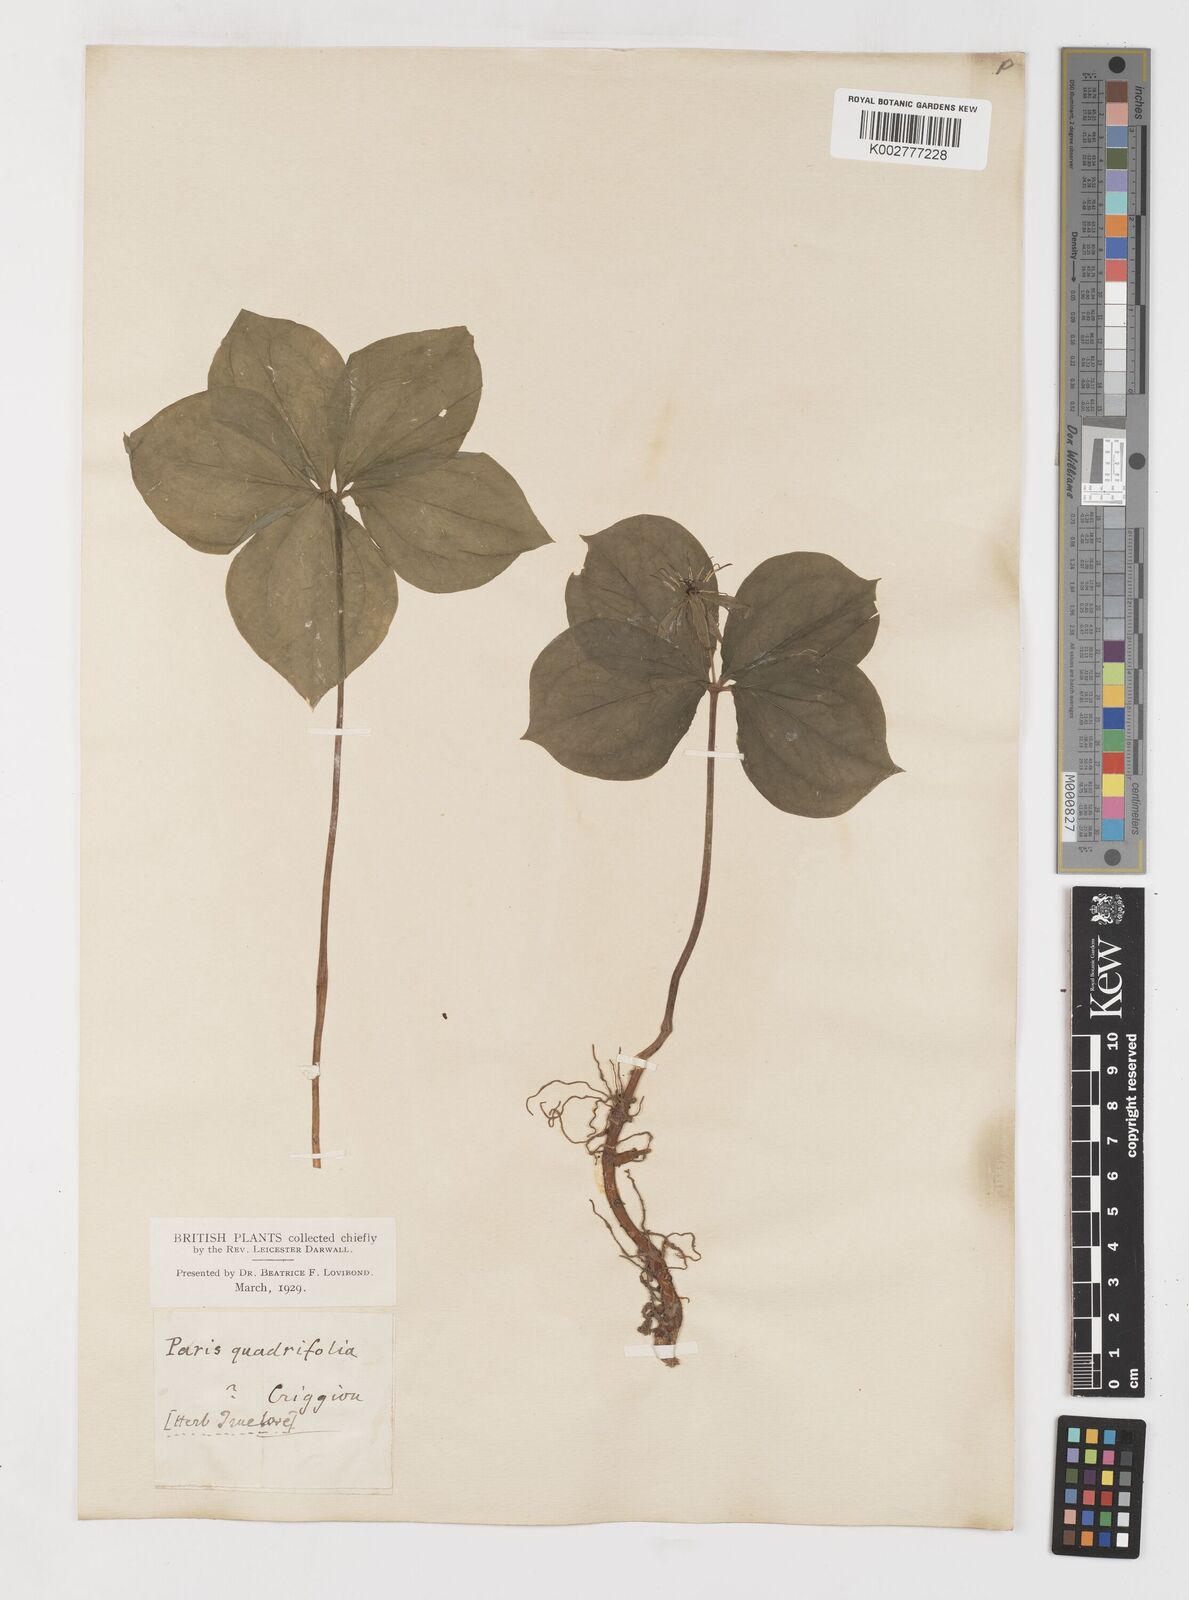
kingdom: Plantae
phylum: Tracheophyta
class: Liliopsida
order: Liliales
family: Melanthiaceae
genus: Paris
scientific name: Paris quadrifolia
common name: Herb-paris
